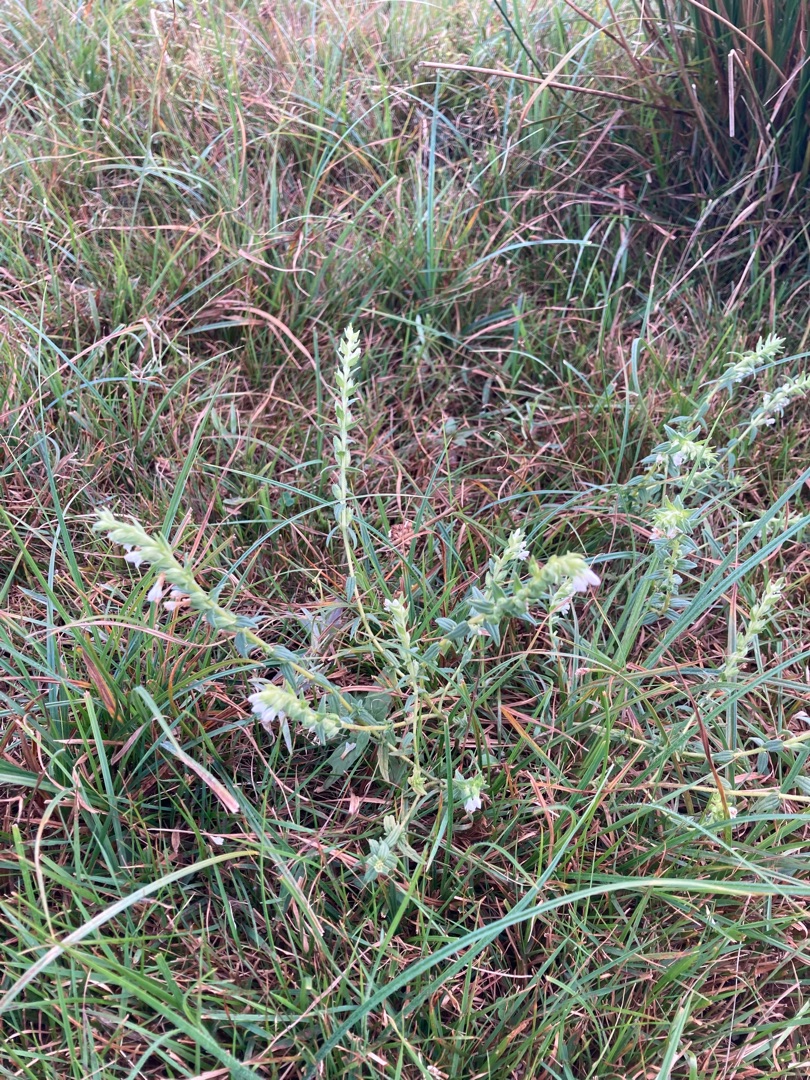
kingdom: Plantae
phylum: Tracheophyta
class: Magnoliopsida
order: Lamiales
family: Orobanchaceae
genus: Odontites
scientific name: Odontites vulgaris
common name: Høst-rødtop
